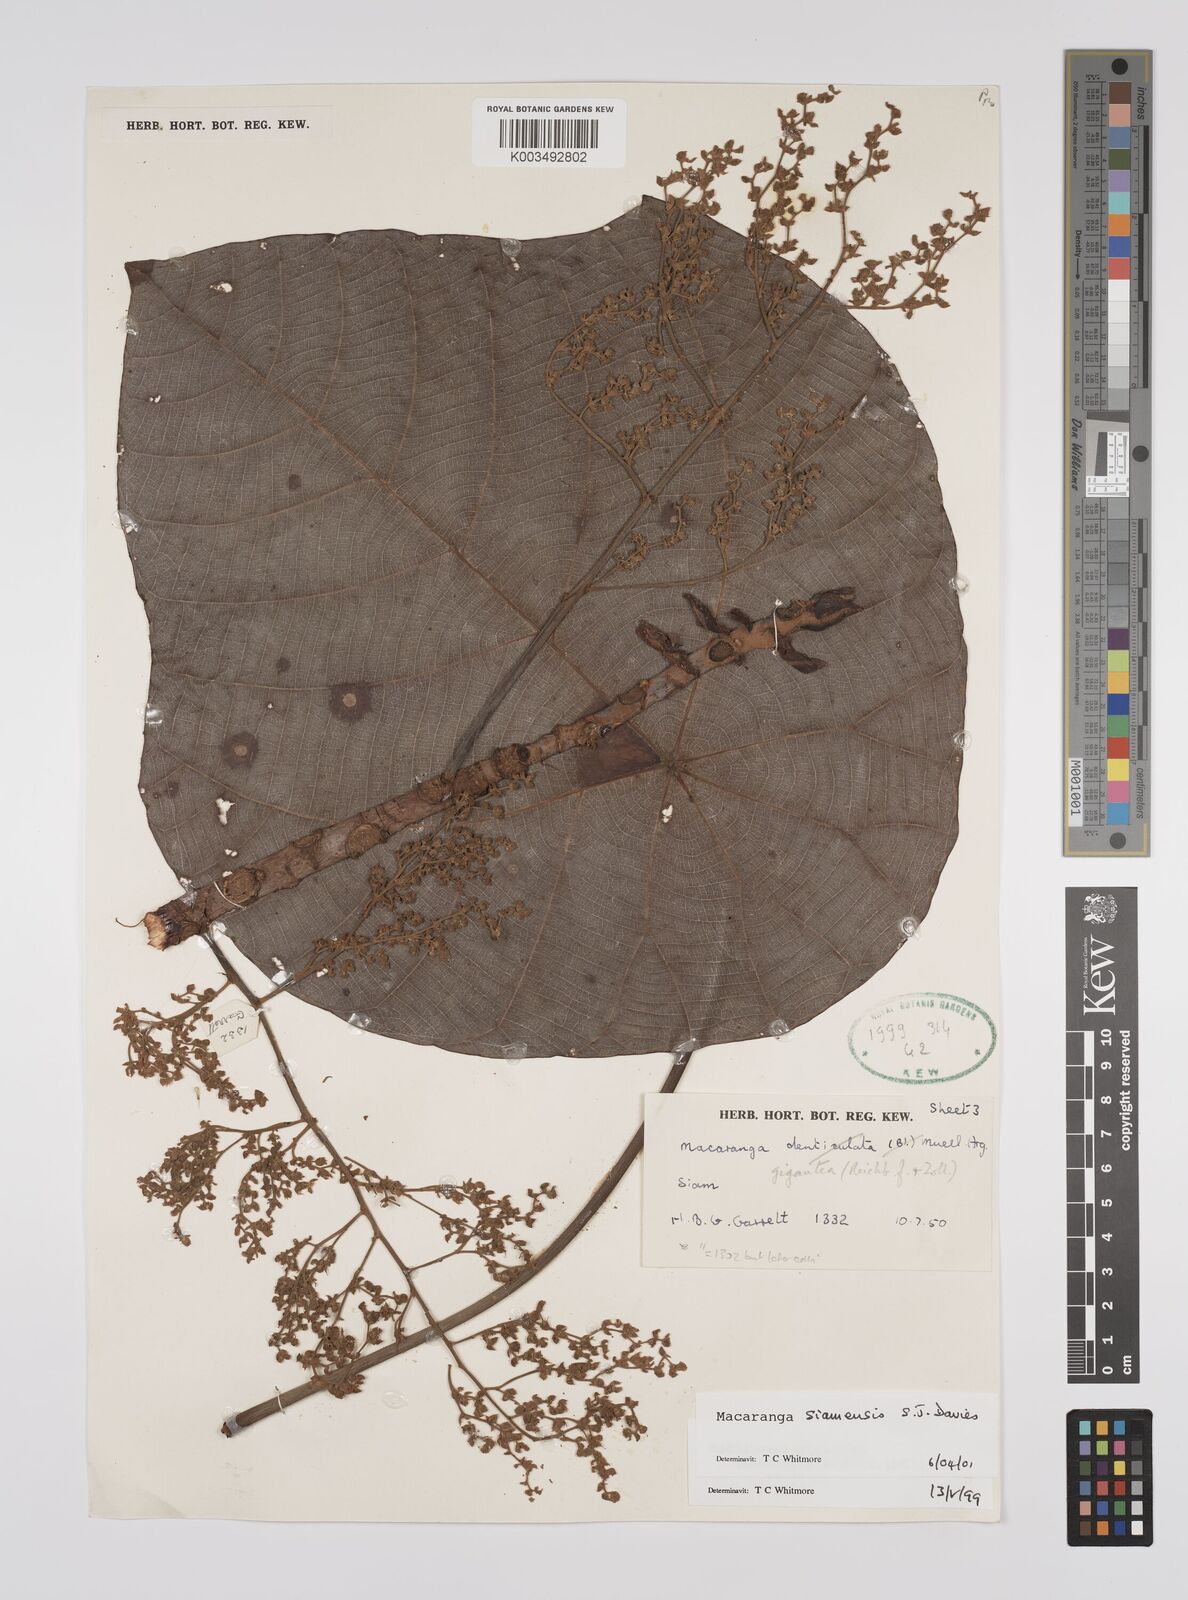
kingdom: Plantae
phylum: Tracheophyta
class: Magnoliopsida
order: Malpighiales
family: Euphorbiaceae
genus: Macaranga
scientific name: Macaranga siamensis
